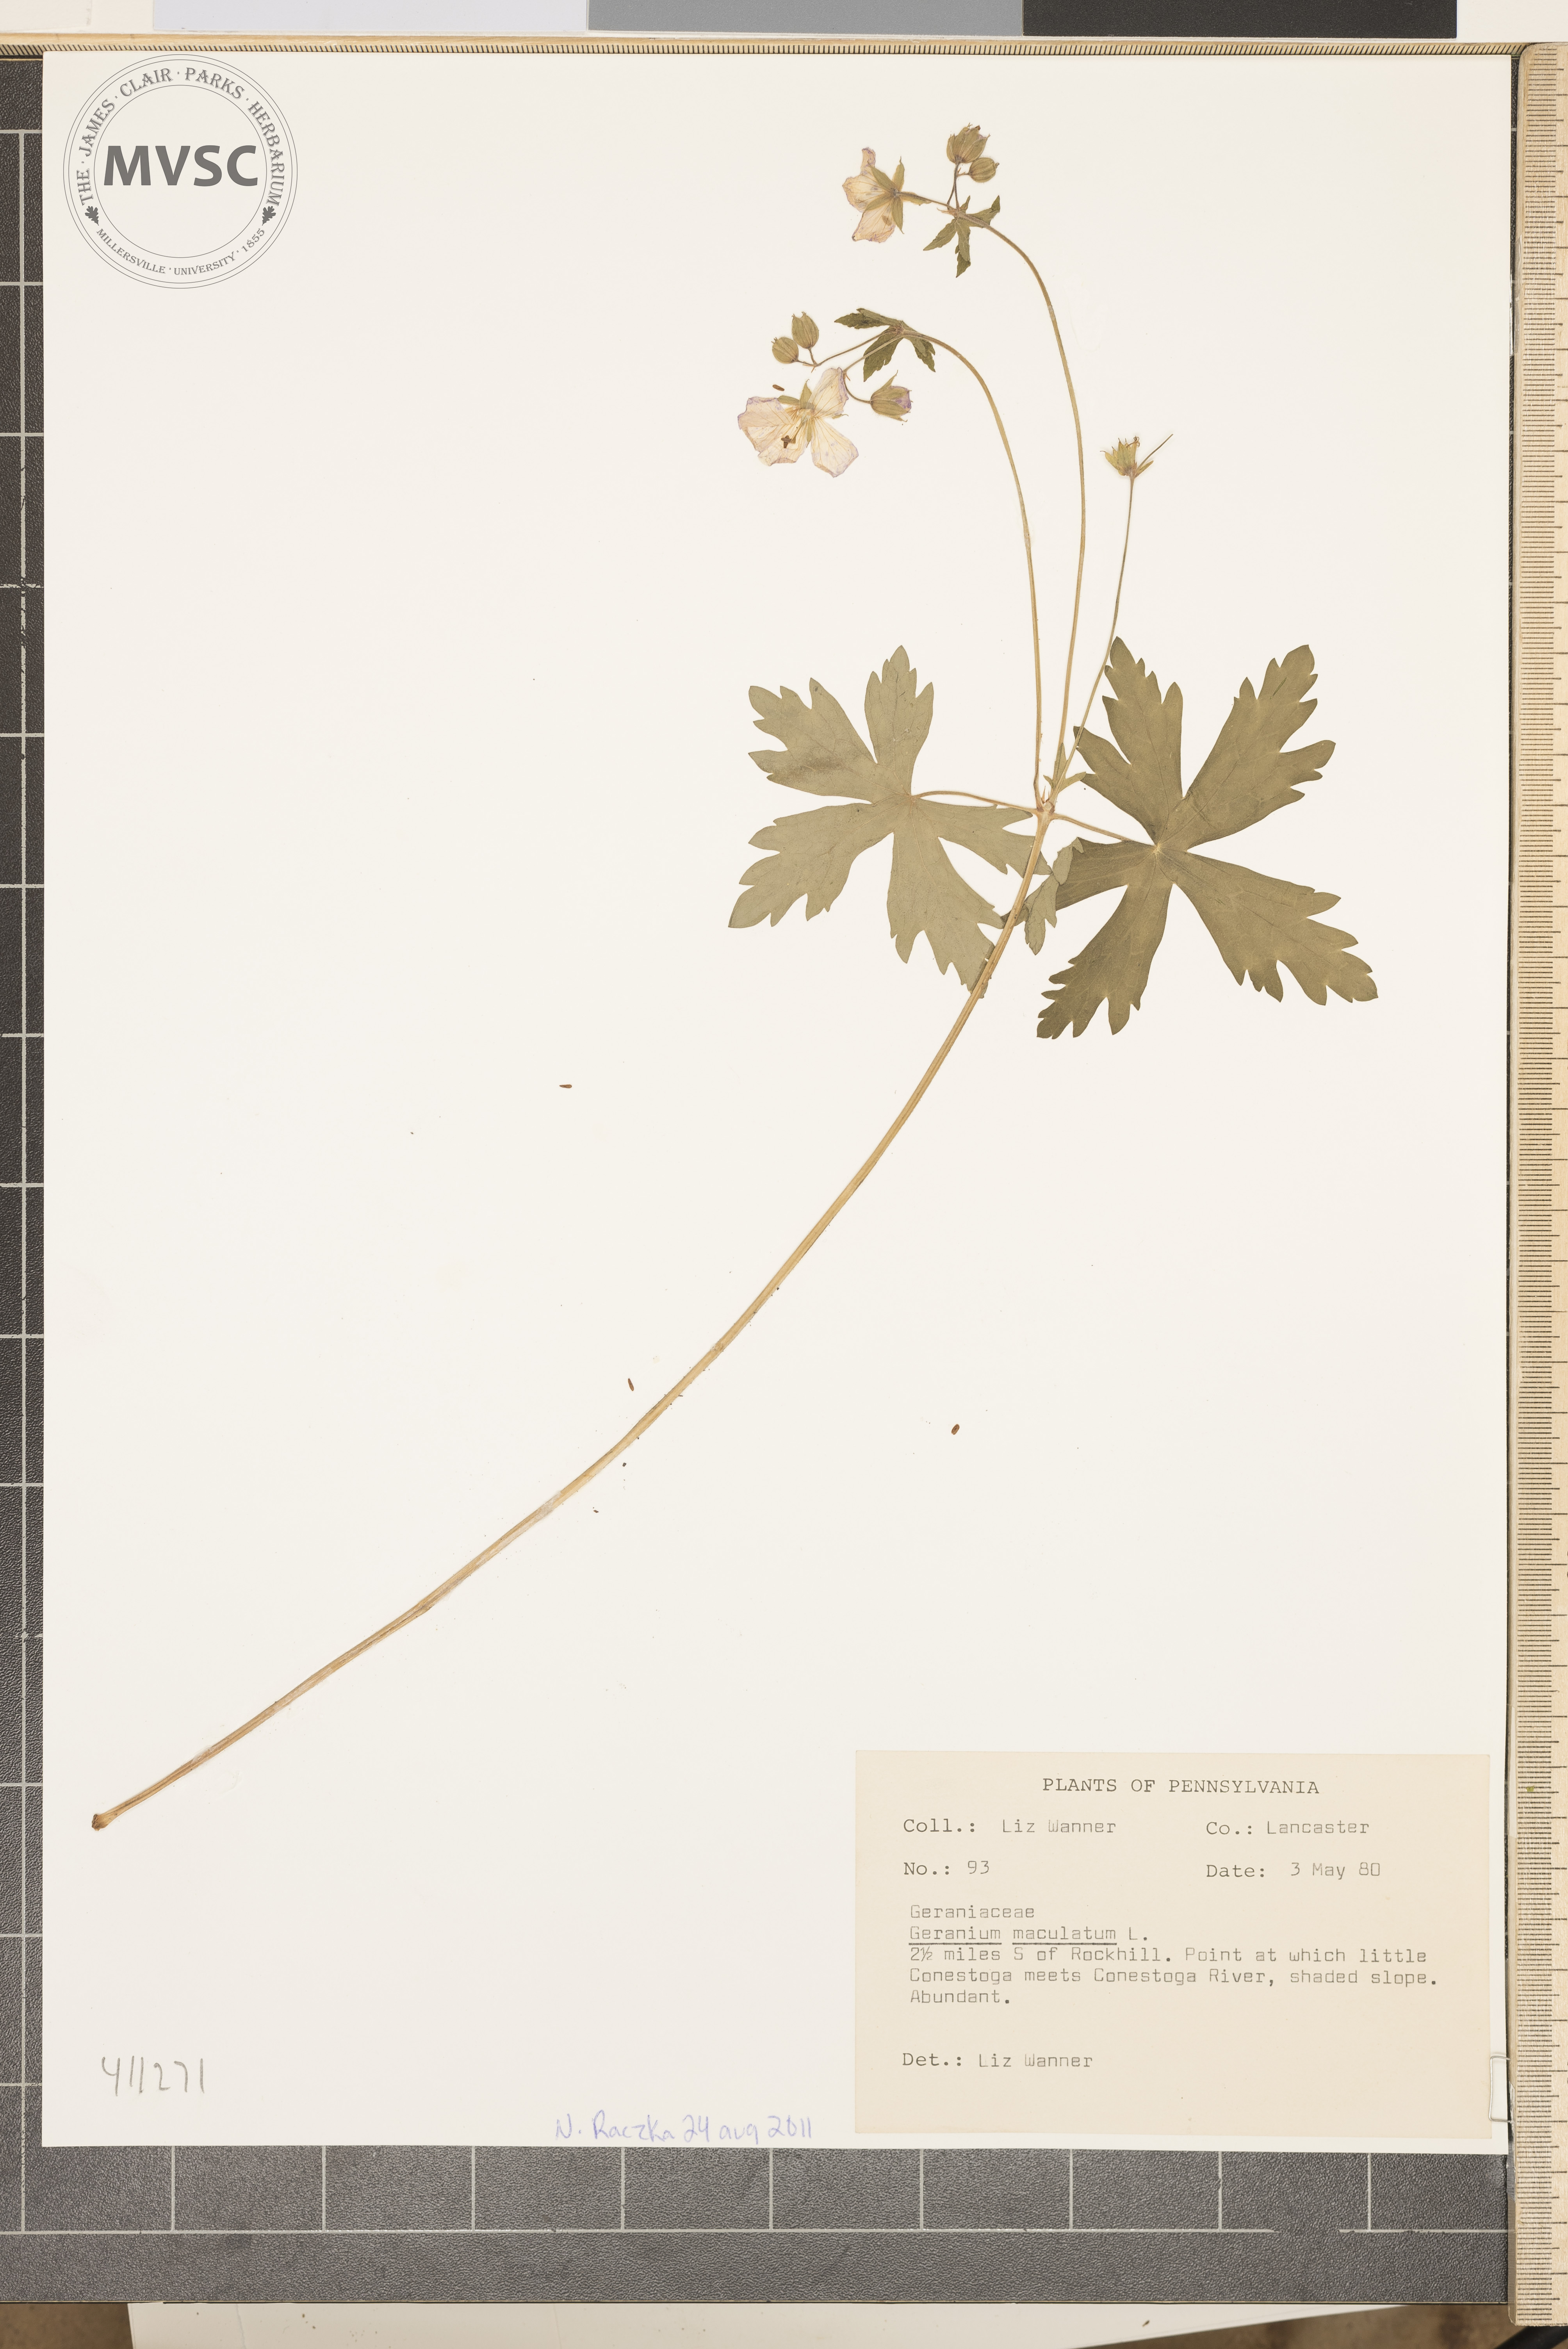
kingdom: Plantae
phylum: Tracheophyta
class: Magnoliopsida
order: Geraniales
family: Geraniaceae
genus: Geranium
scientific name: Geranium maculatum
